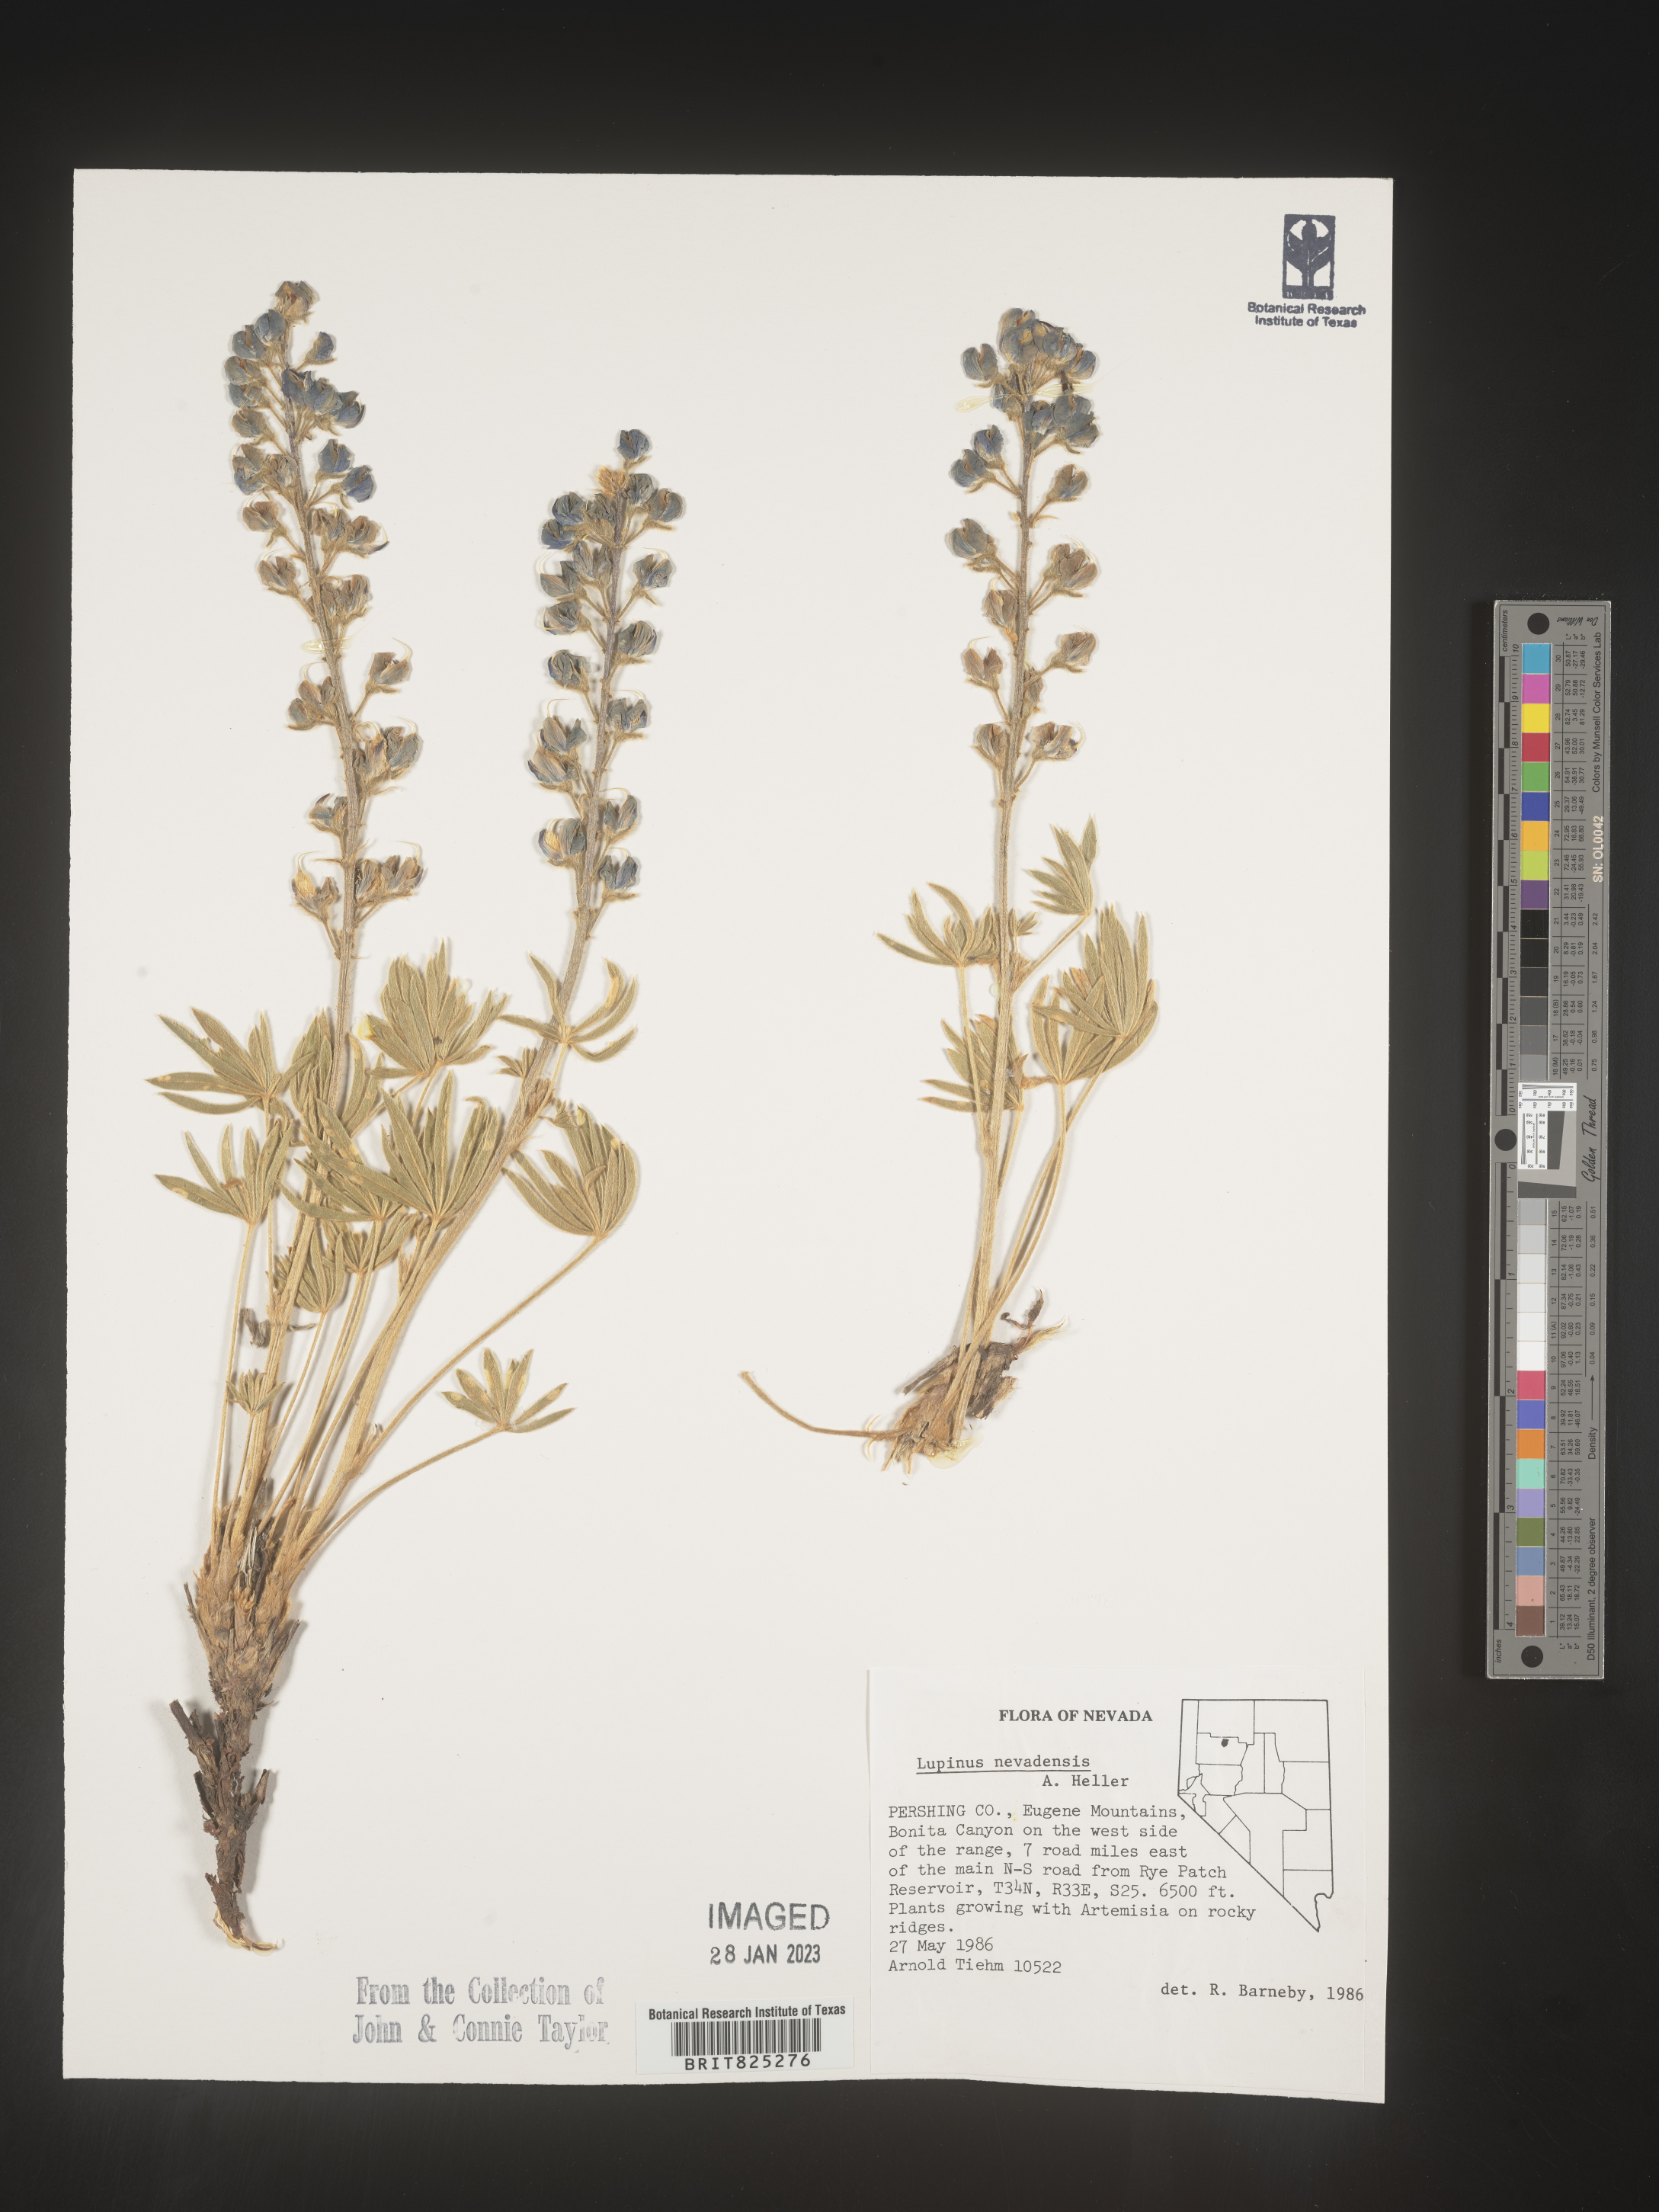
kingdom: Plantae
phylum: Tracheophyta
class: Magnoliopsida
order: Fabales
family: Fabaceae
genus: Lupinus
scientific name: Lupinus
